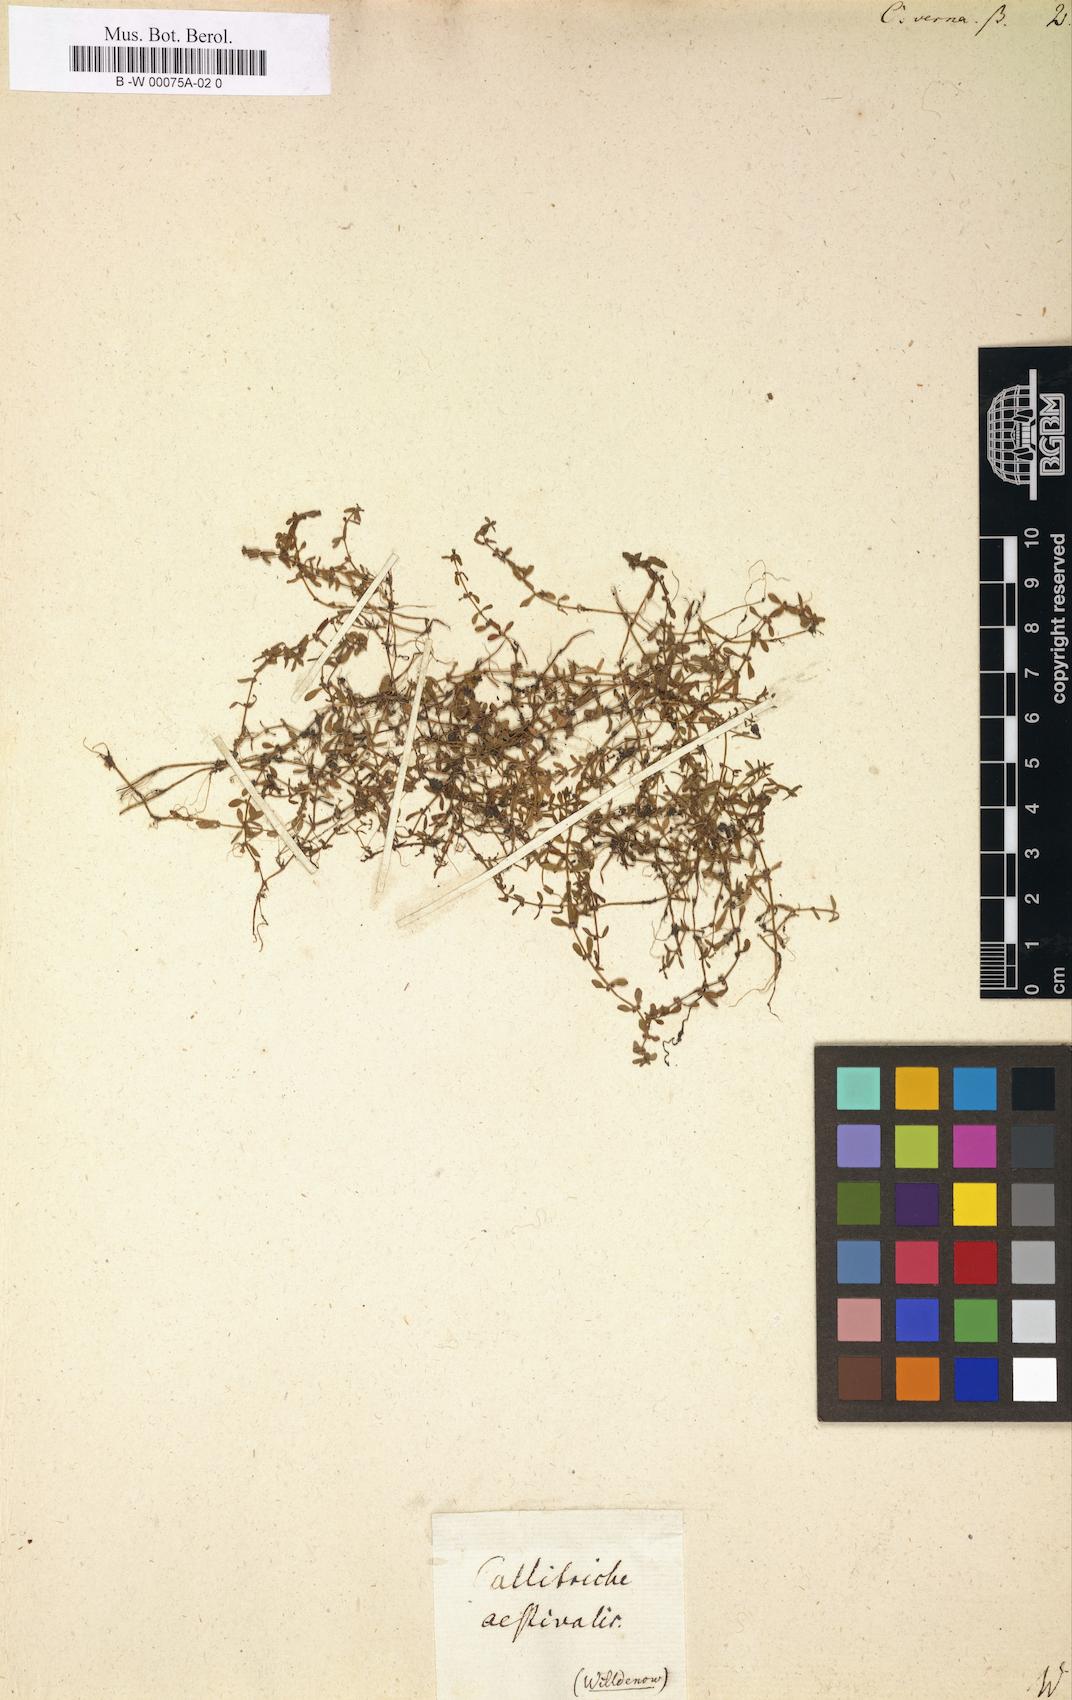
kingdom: Plantae
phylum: Tracheophyta
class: Magnoliopsida
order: Lamiales
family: Plantaginaceae
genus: Callitriche
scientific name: Callitriche
